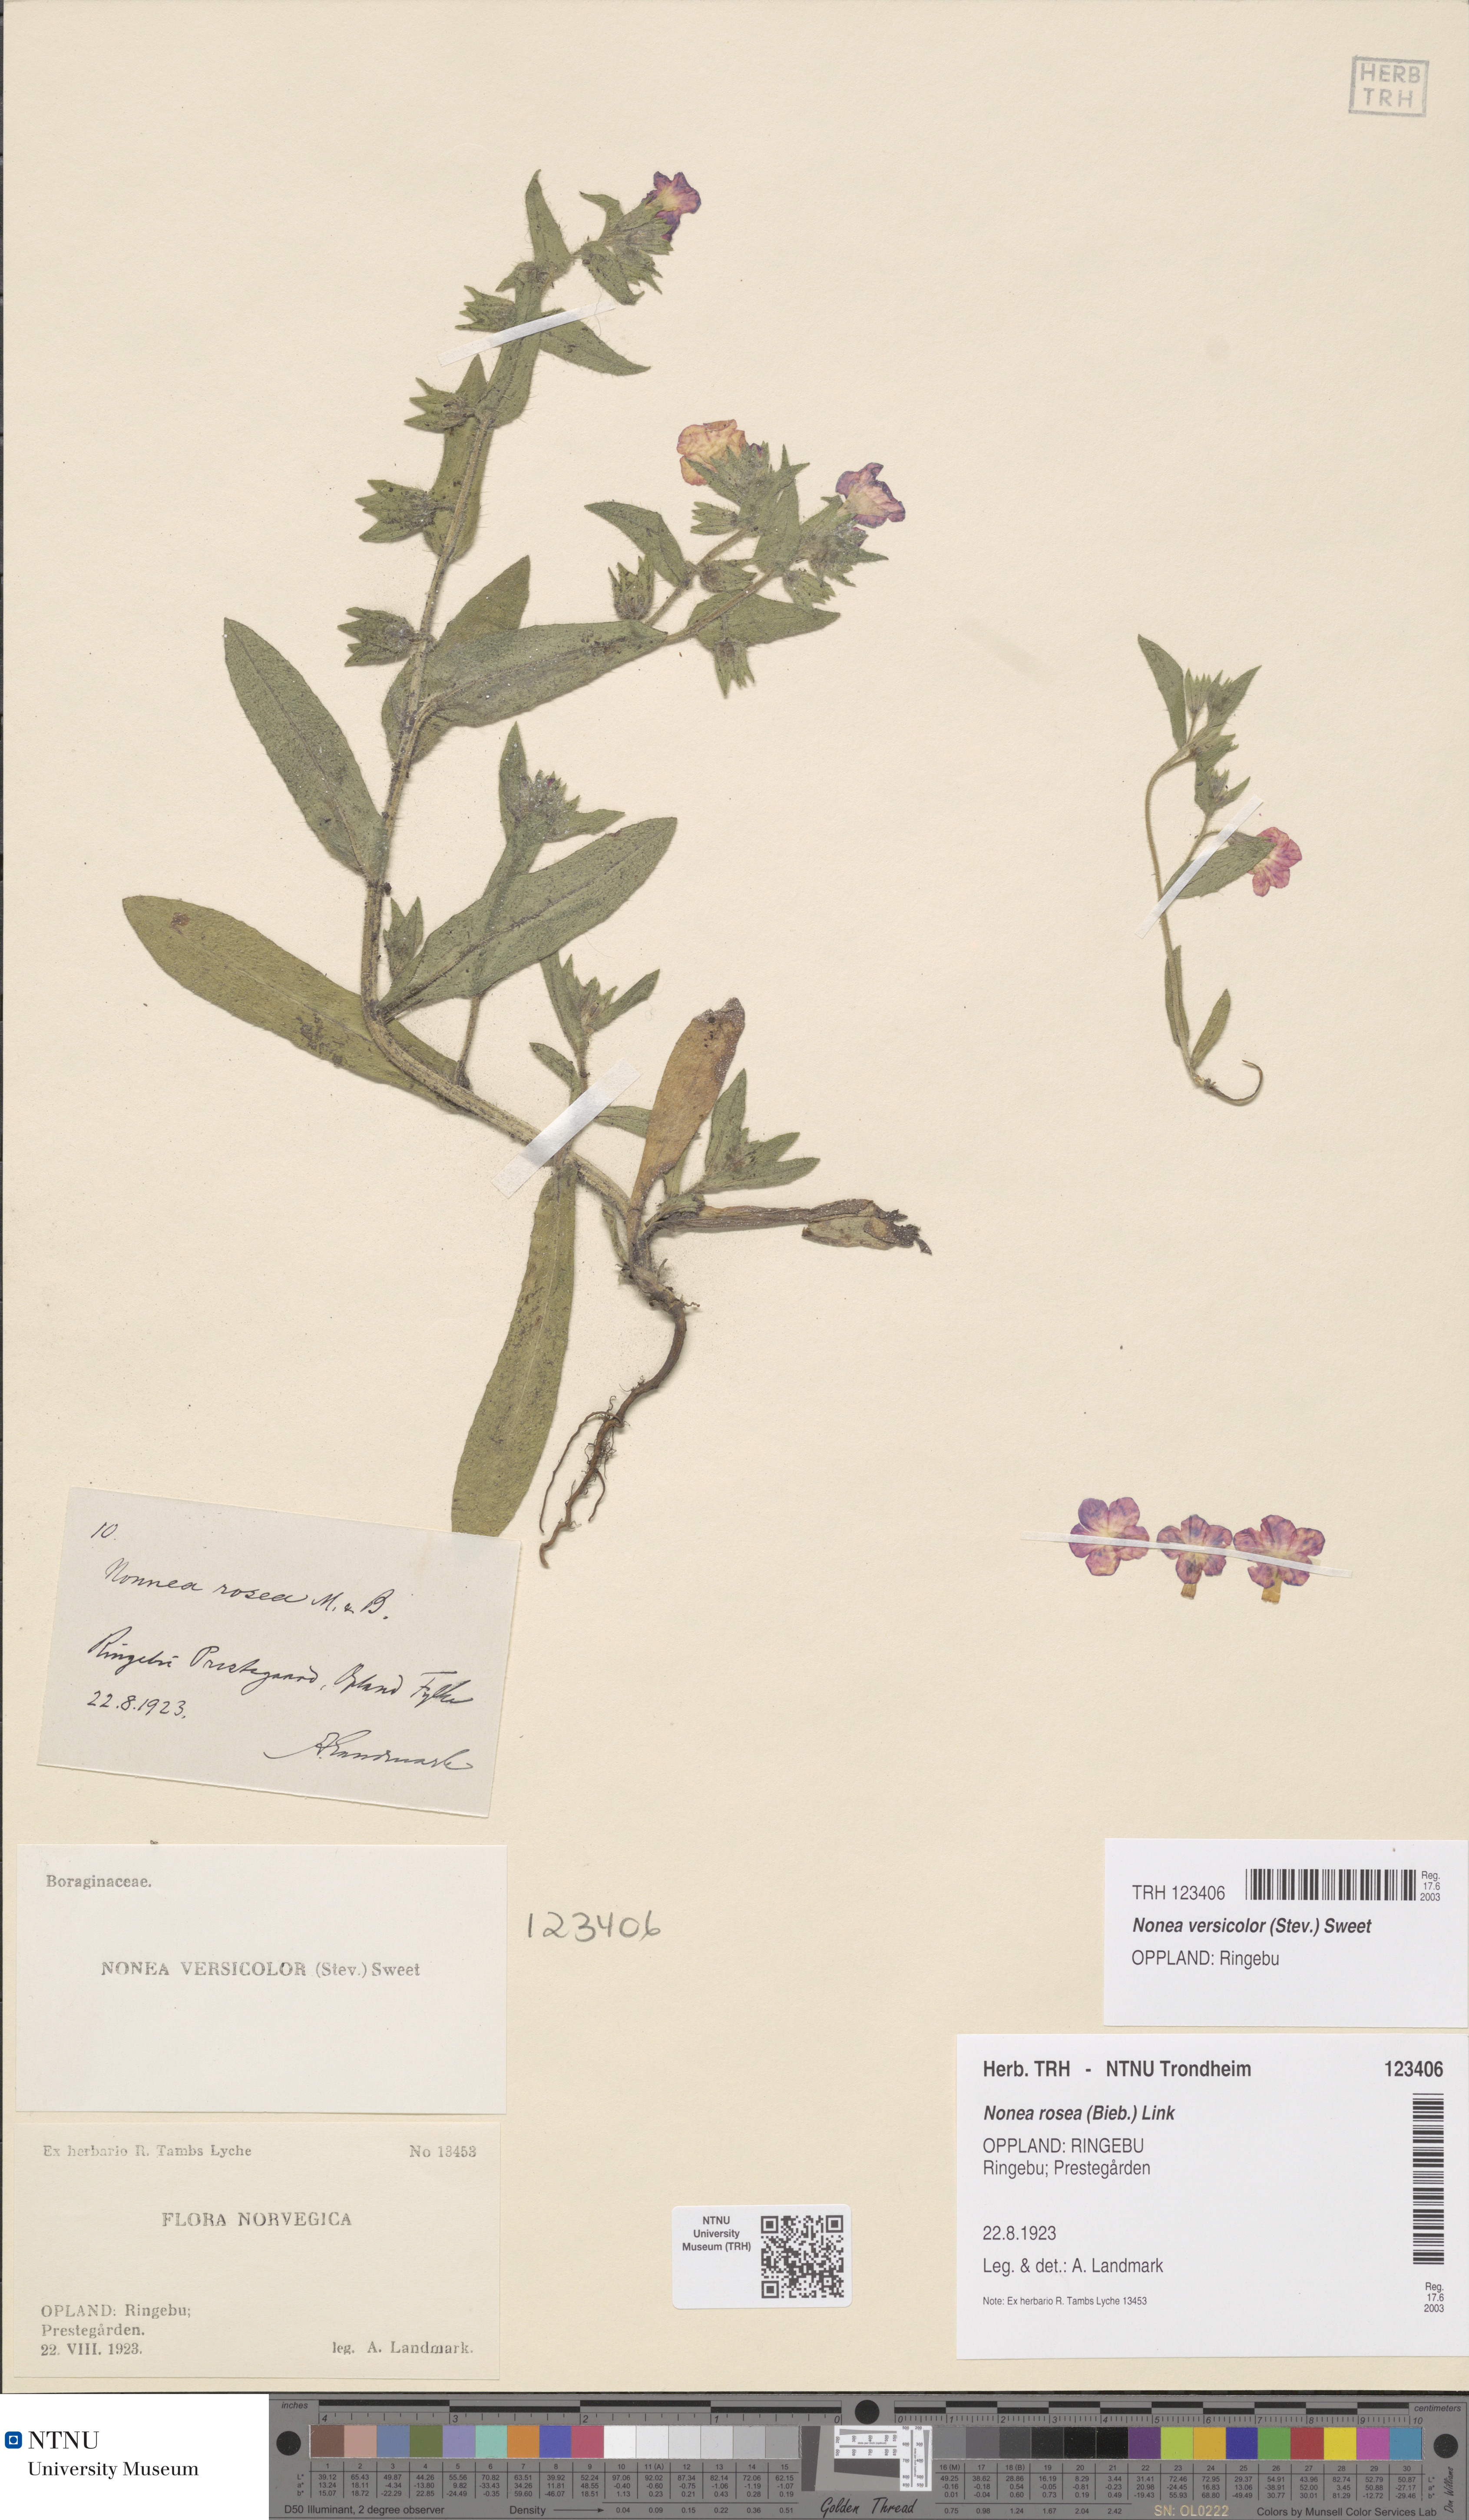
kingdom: Plantae
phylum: Tracheophyta
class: Magnoliopsida
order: Boraginales
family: Boraginaceae
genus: Nonea
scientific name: Nonea versicolor
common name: Varied monkswort
